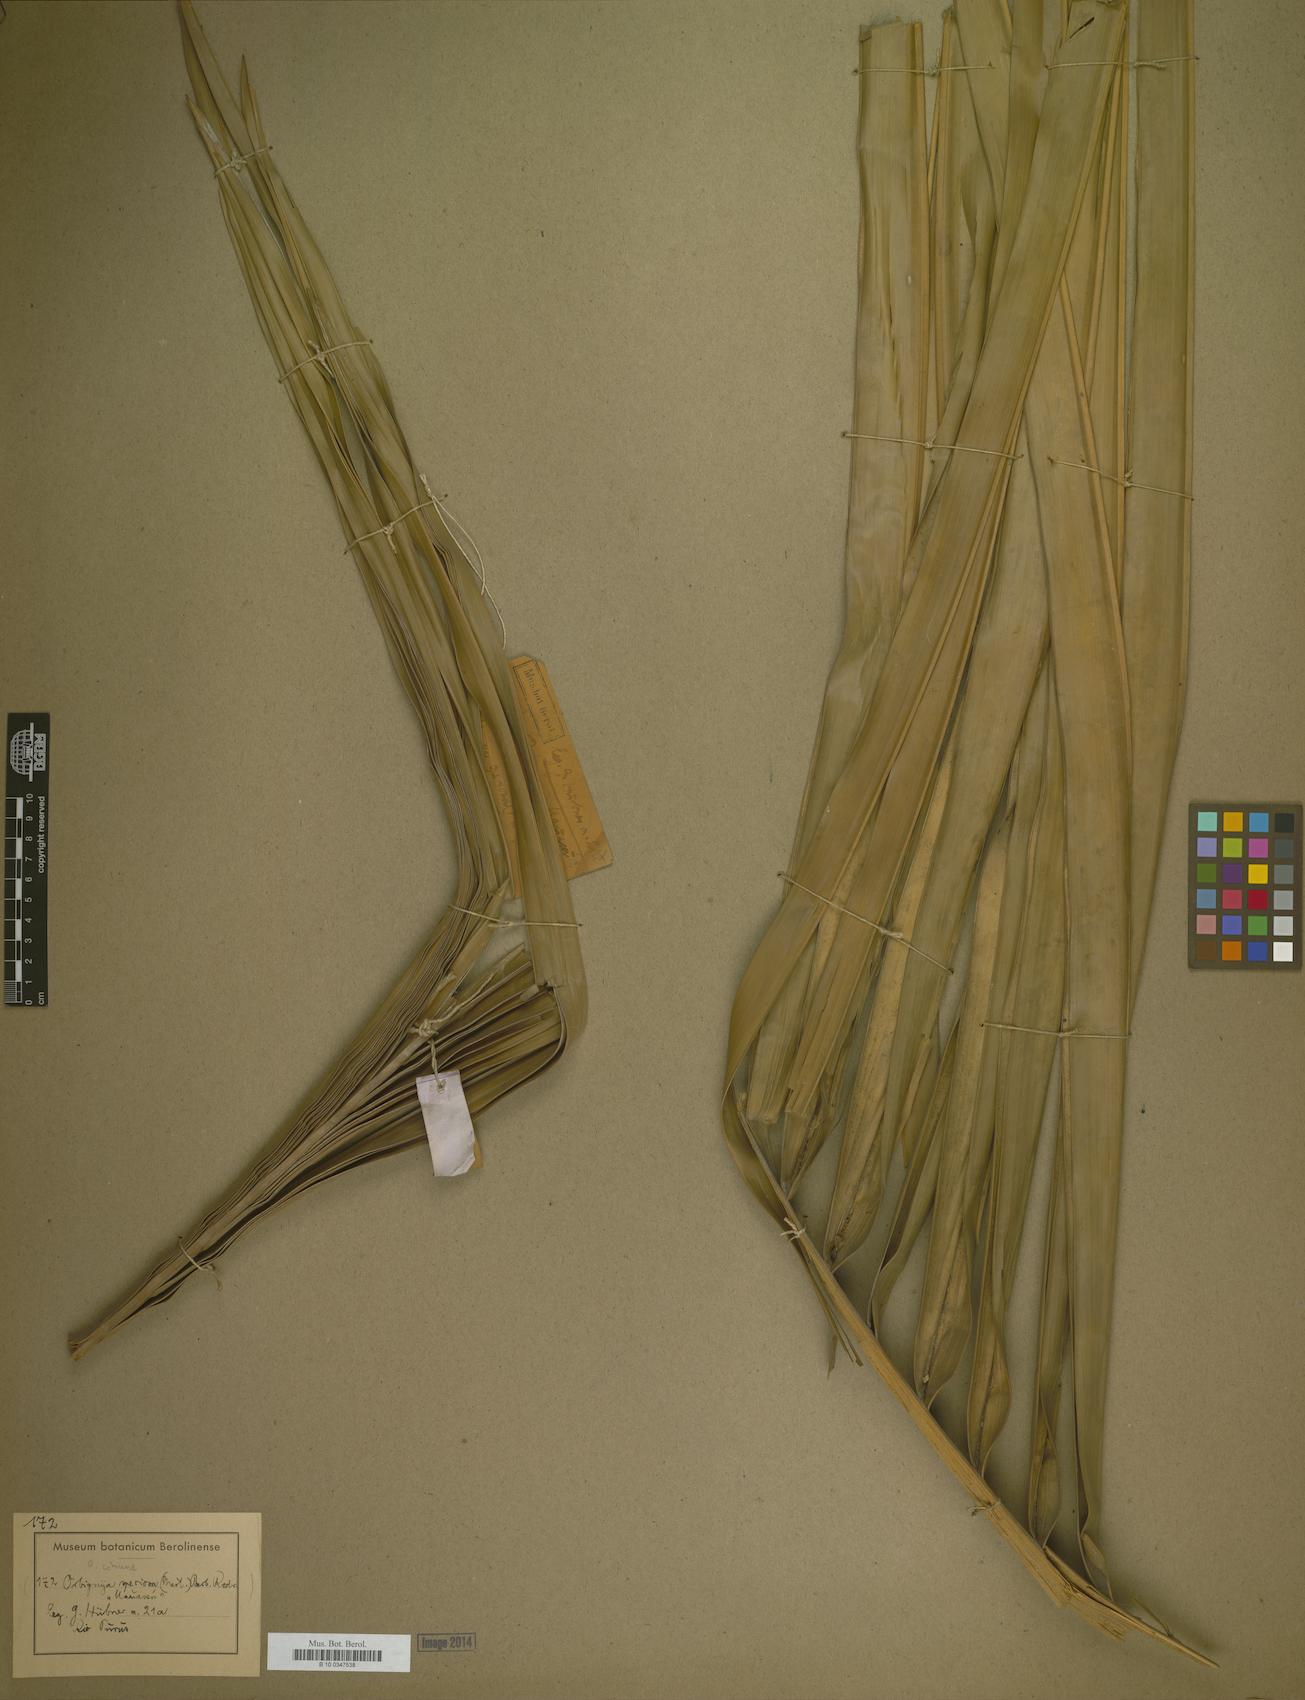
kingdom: Plantae
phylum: Tracheophyta
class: Liliopsida
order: Arecales
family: Arecaceae
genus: Attalea
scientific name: Attalea speciosa
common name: Babassu palm
